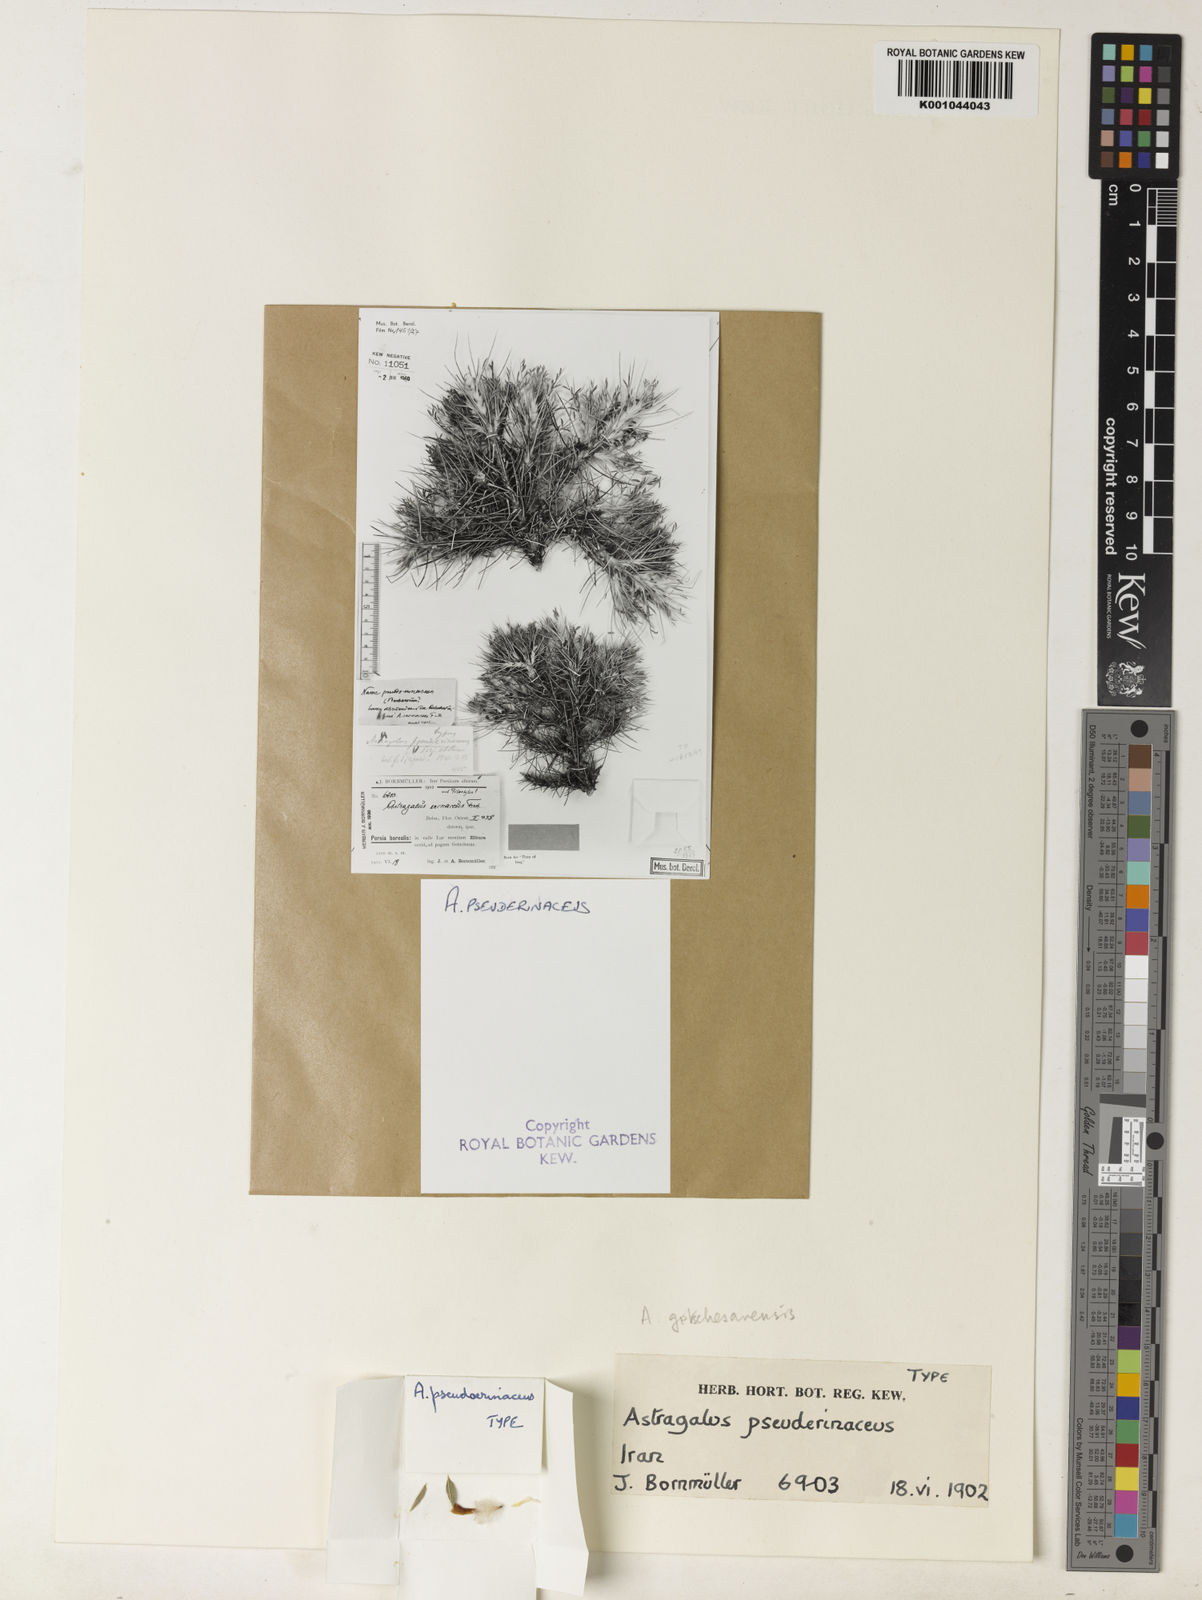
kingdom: Plantae
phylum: Tracheophyta
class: Magnoliopsida
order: Fabales
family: Fabaceae
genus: Astragalus
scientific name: Astragalus microcephalus
